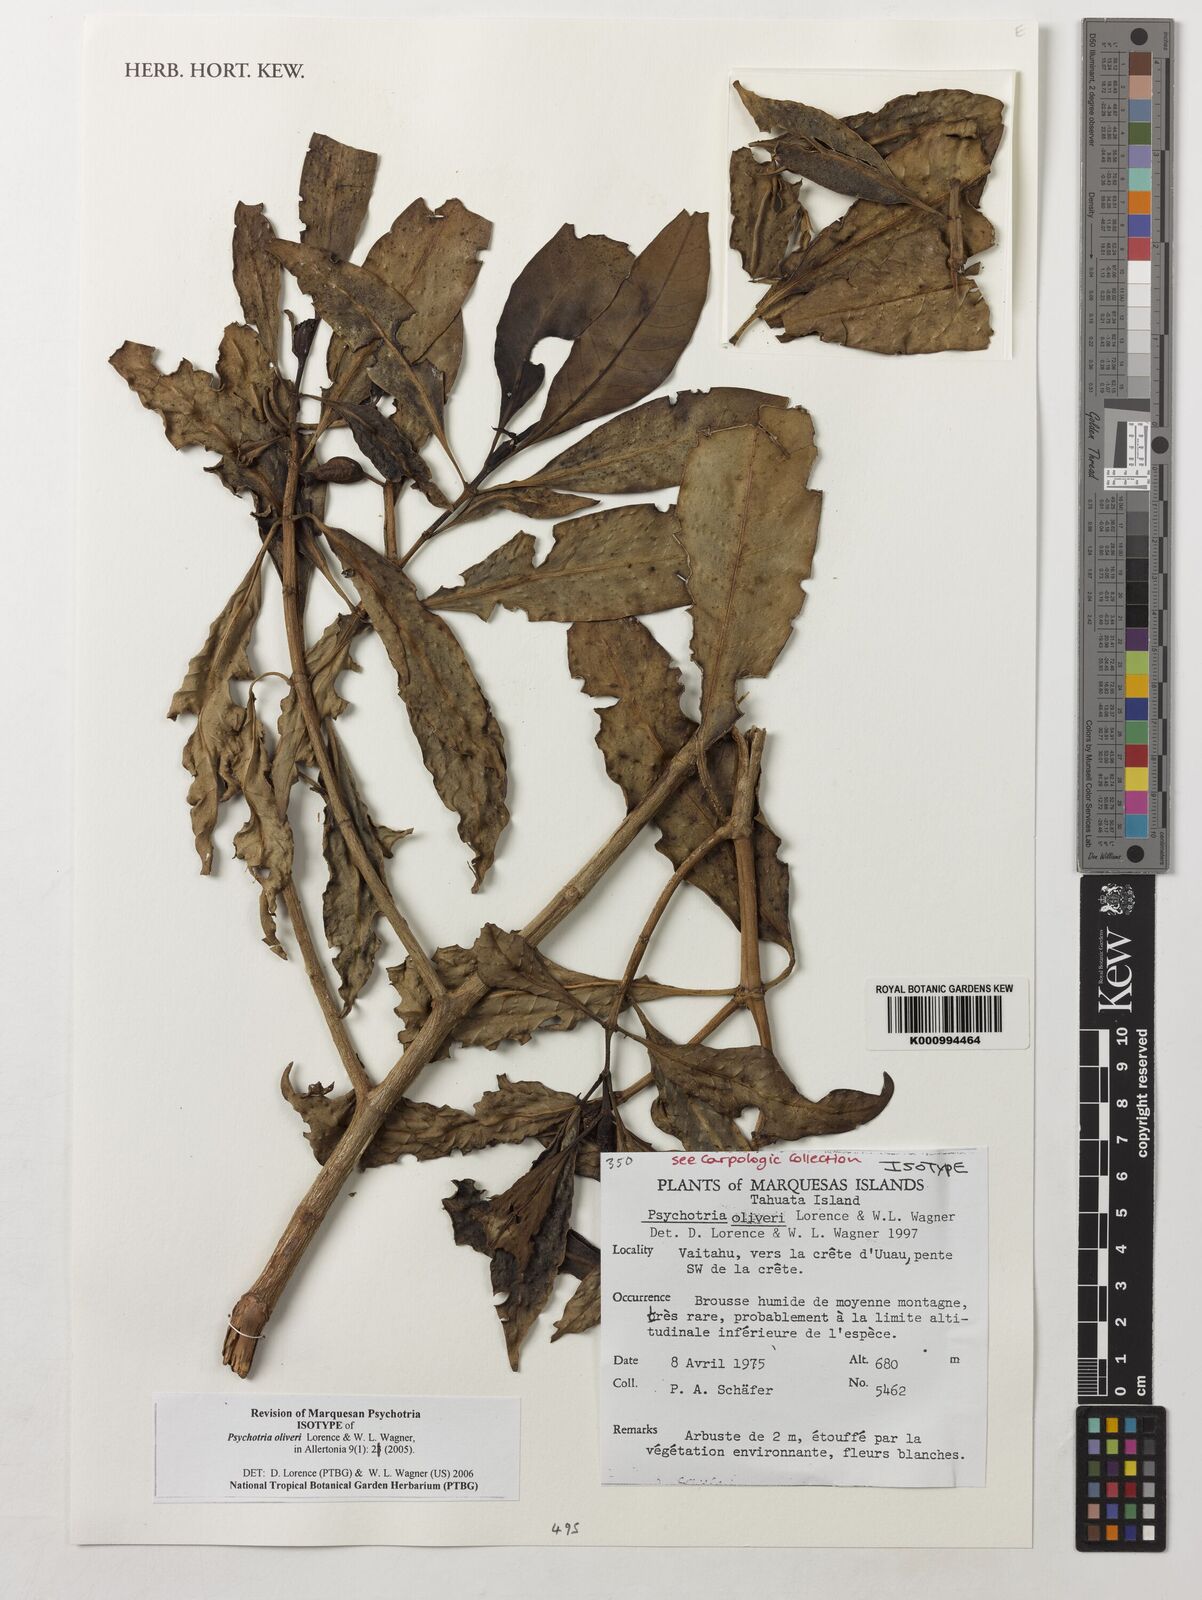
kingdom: Plantae
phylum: Tracheophyta
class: Magnoliopsida
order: Gentianales
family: Rubiaceae
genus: Psychotria
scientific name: Psychotria oliveri
